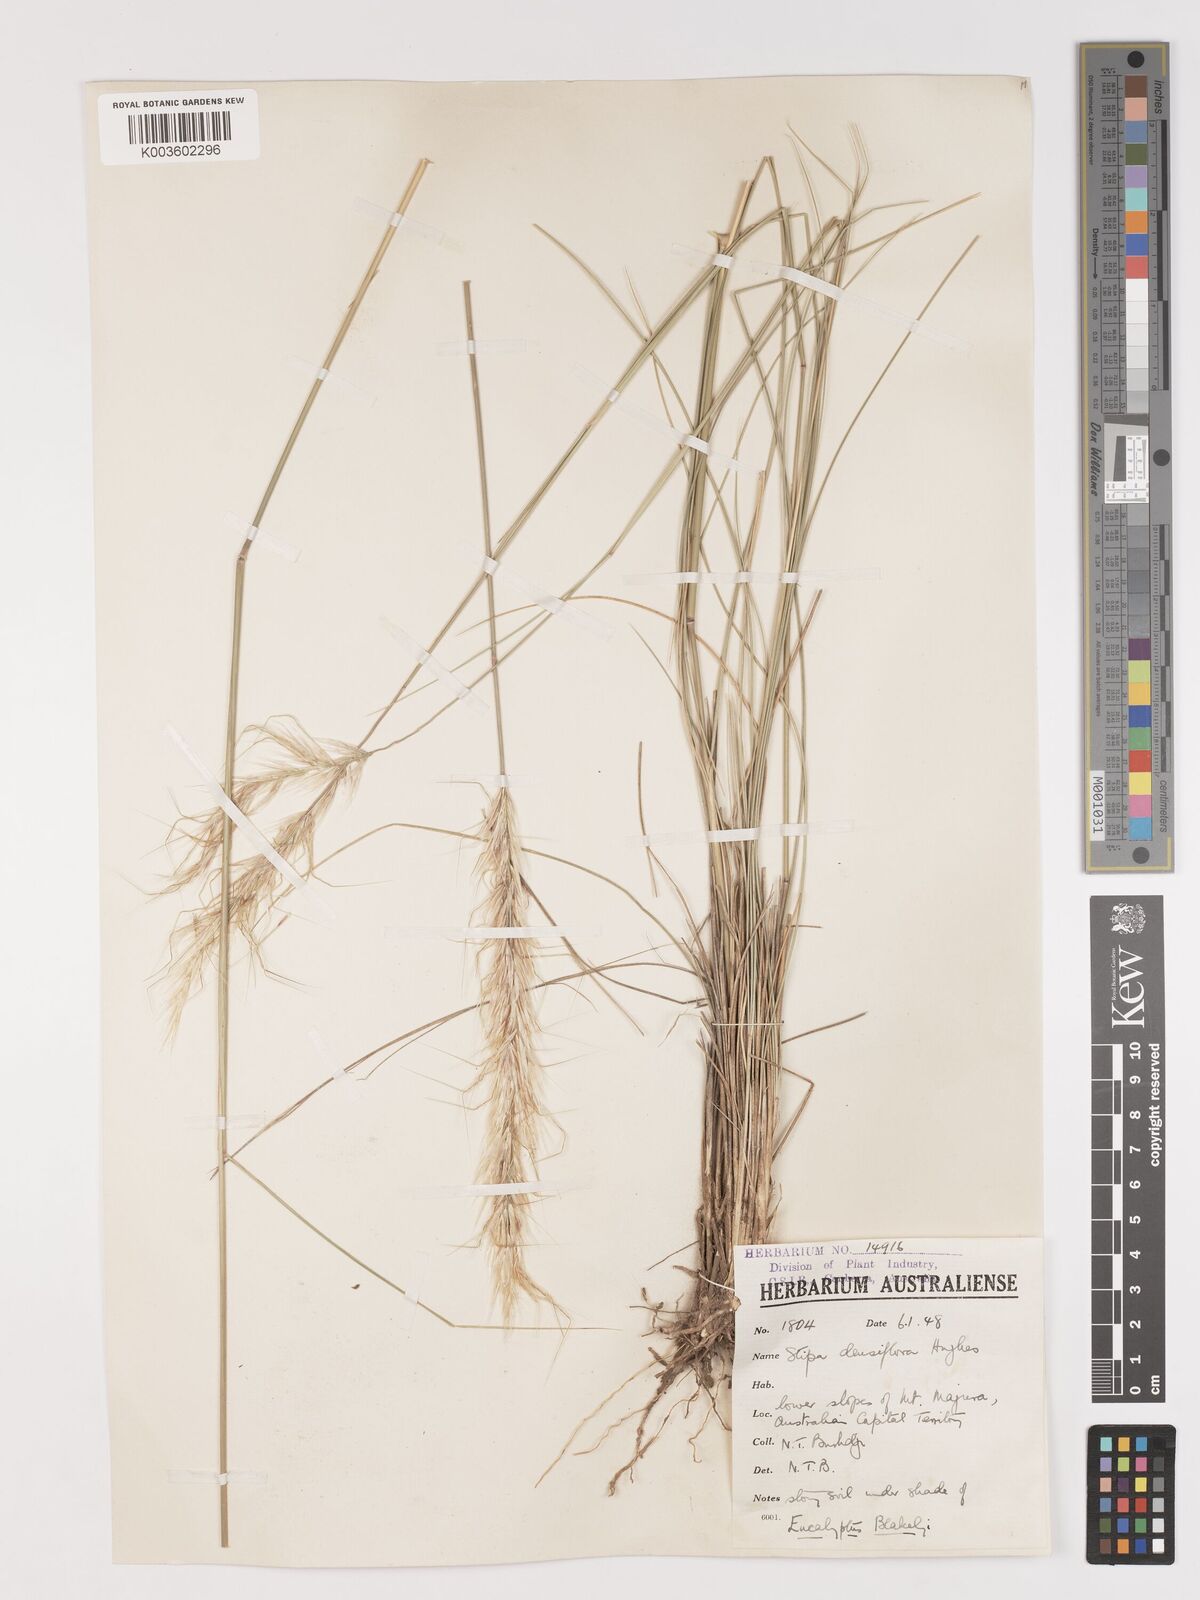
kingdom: Plantae
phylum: Tracheophyta
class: Liliopsida
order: Poales
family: Poaceae
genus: Stipa
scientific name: Stipa
